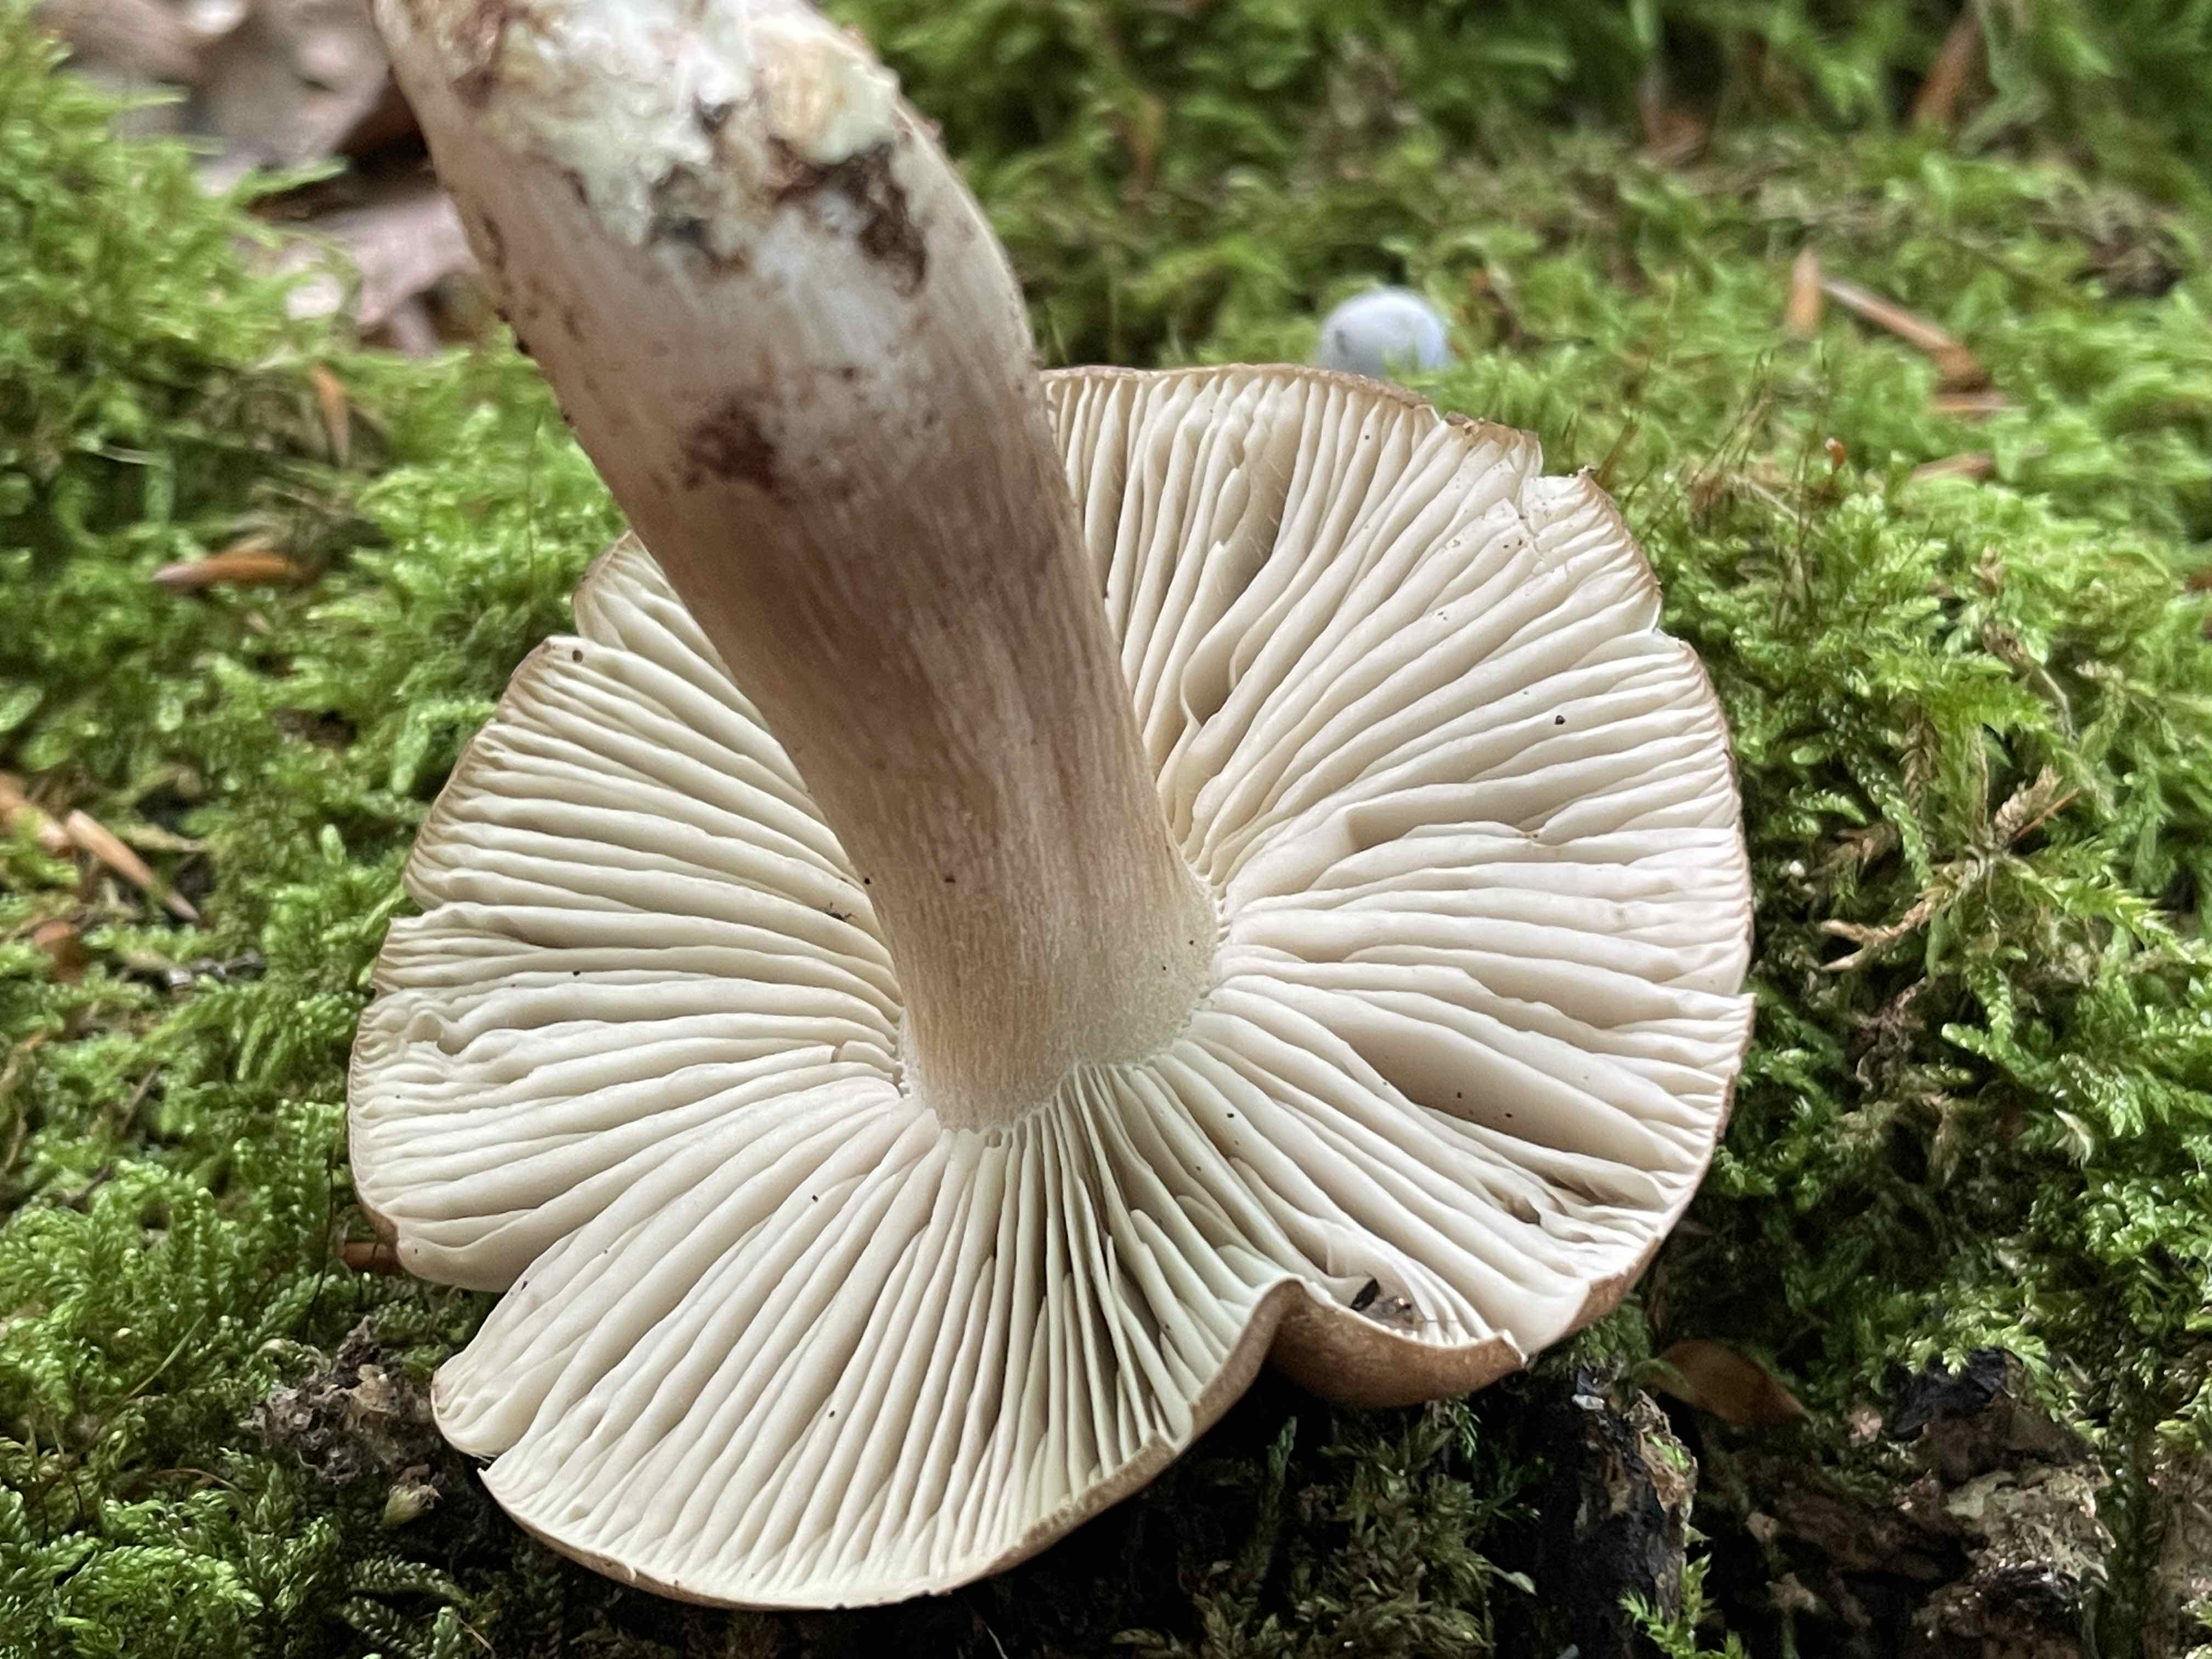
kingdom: Fungi
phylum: Basidiomycota
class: Agaricomycetes
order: Agaricales
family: Tricholomataceae
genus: Megacollybia
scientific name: Megacollybia platyphylla
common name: bredbladet væbnerhat
